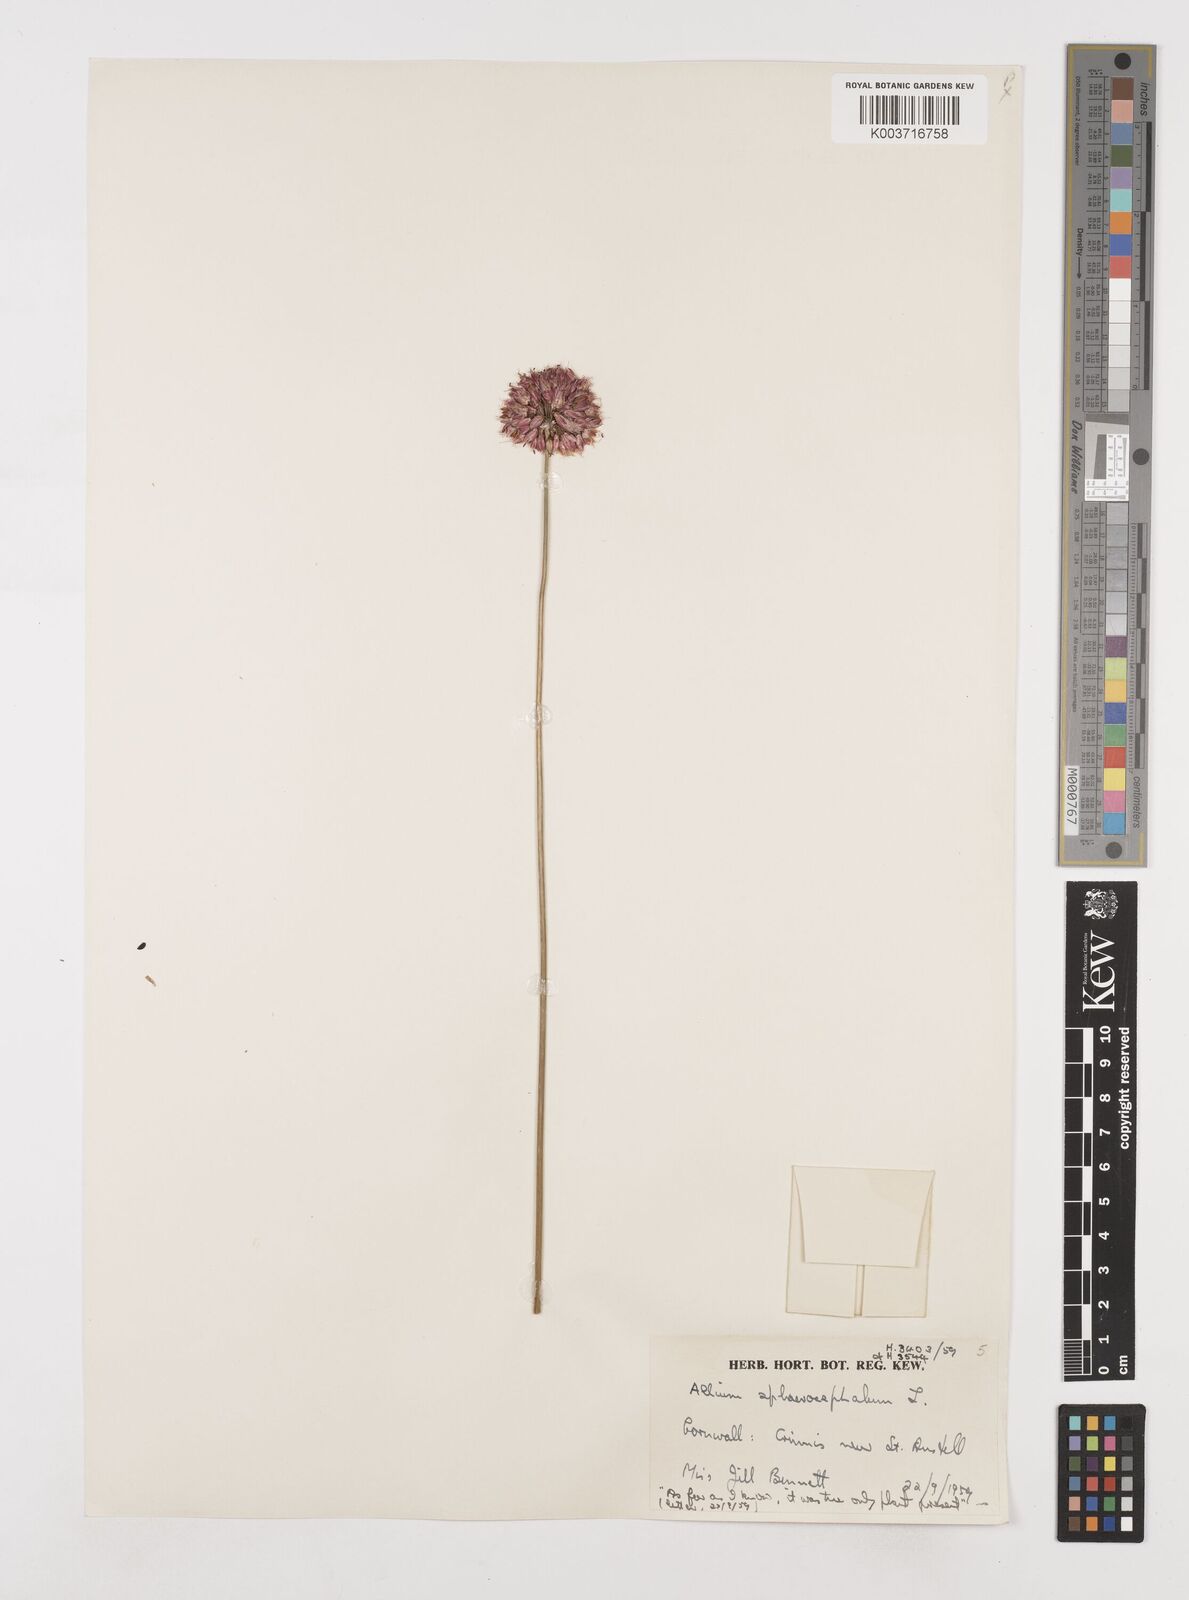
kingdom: Plantae
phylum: Tracheophyta
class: Liliopsida
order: Asparagales
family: Amaryllidaceae
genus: Allium
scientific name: Allium sphaerocephalon
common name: Round-headed leek
